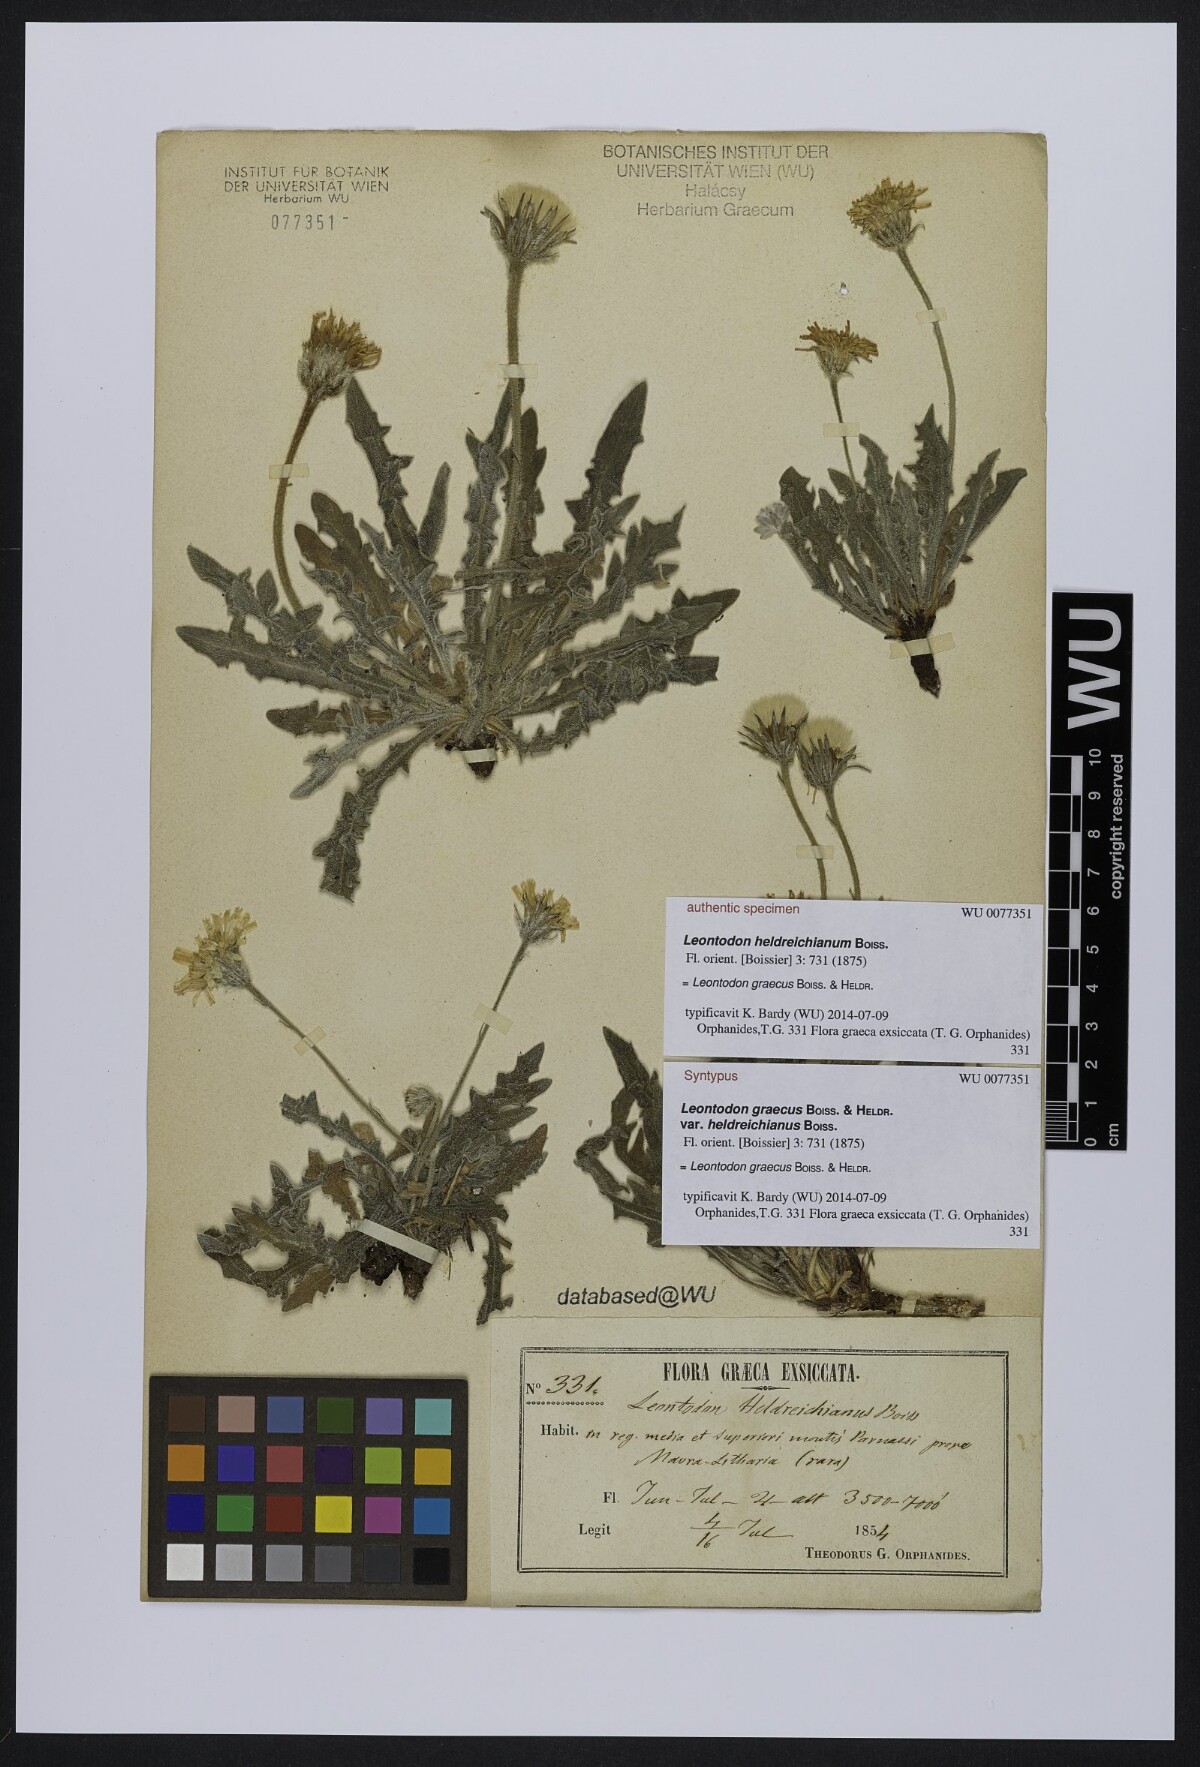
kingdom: Plantae
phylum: Tracheophyta
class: Magnoliopsida
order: Asterales
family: Asteraceae
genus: Leontodon
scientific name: Leontodon graecus
